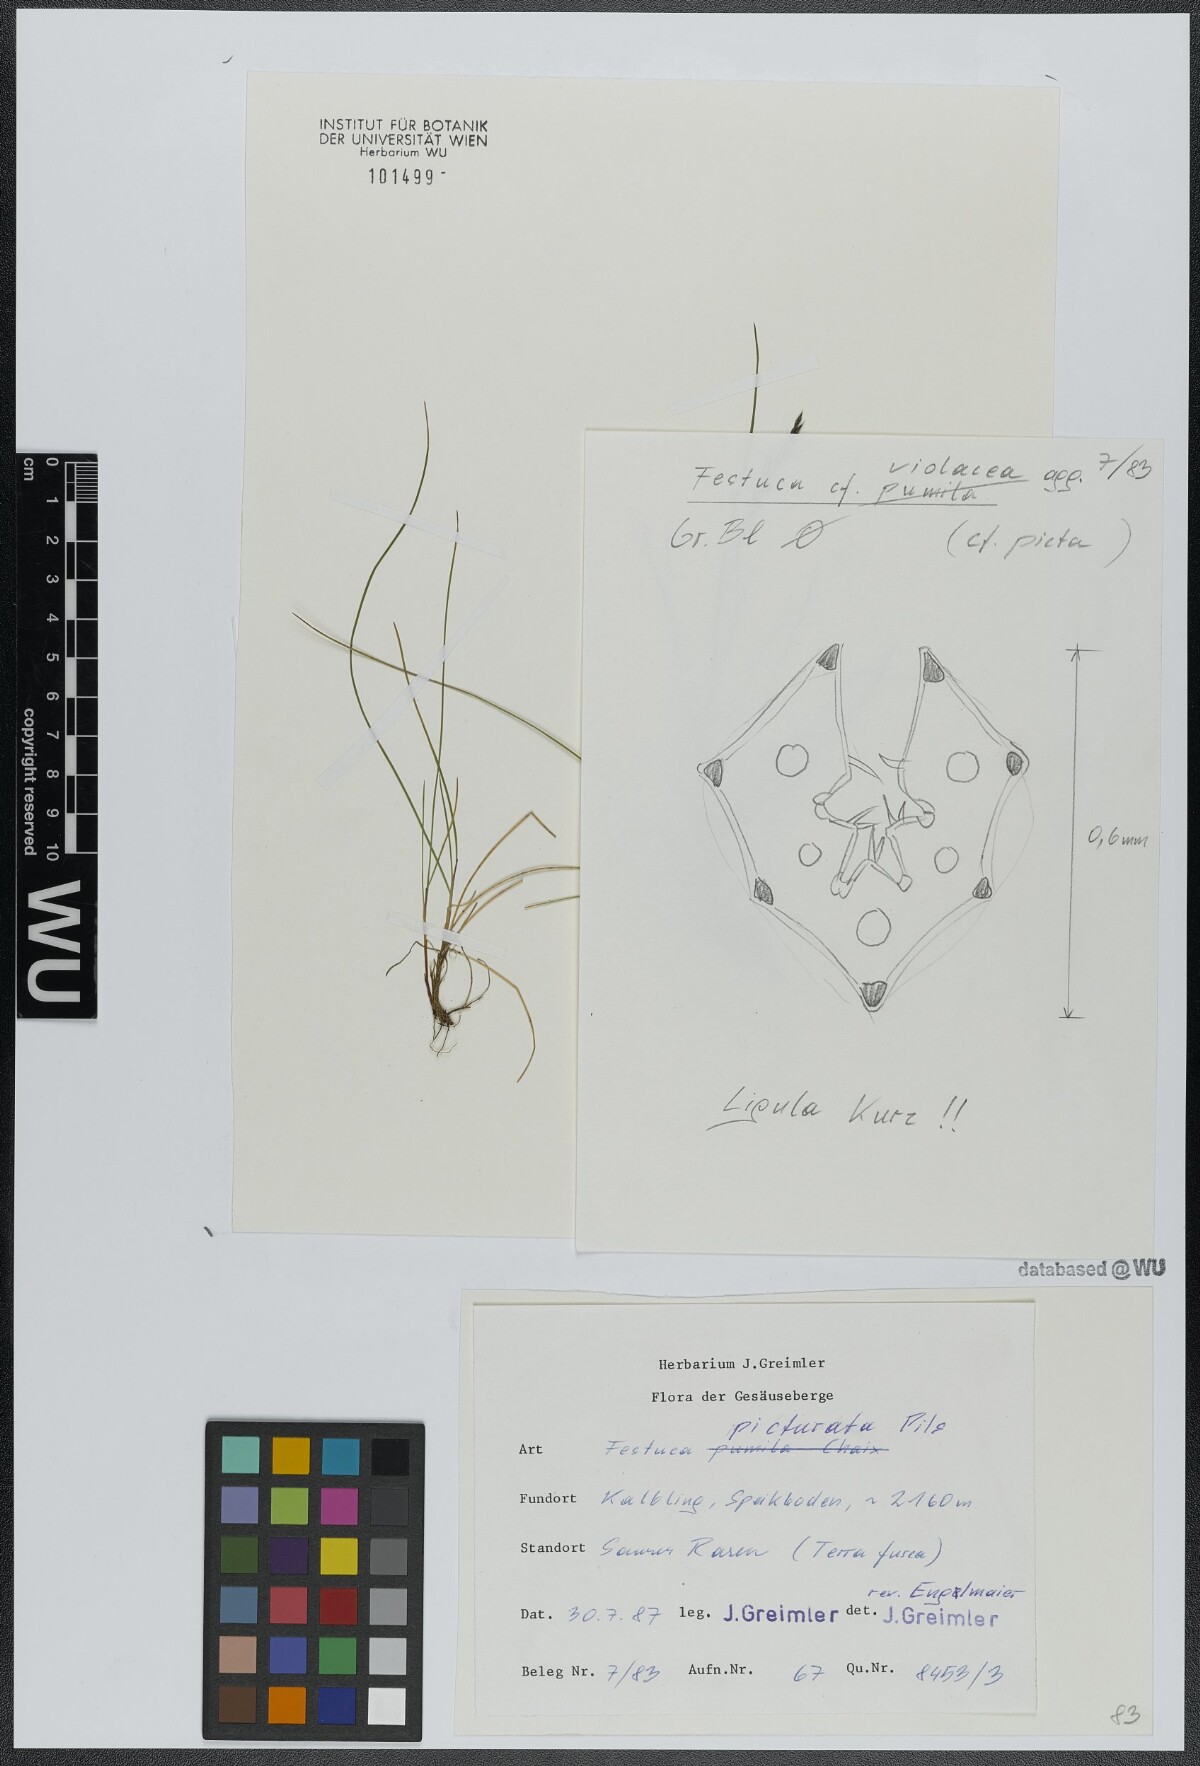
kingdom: Plantae
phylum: Tracheophyta
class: Liliopsida
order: Poales
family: Poaceae
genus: Festuca
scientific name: Festuca picturata
